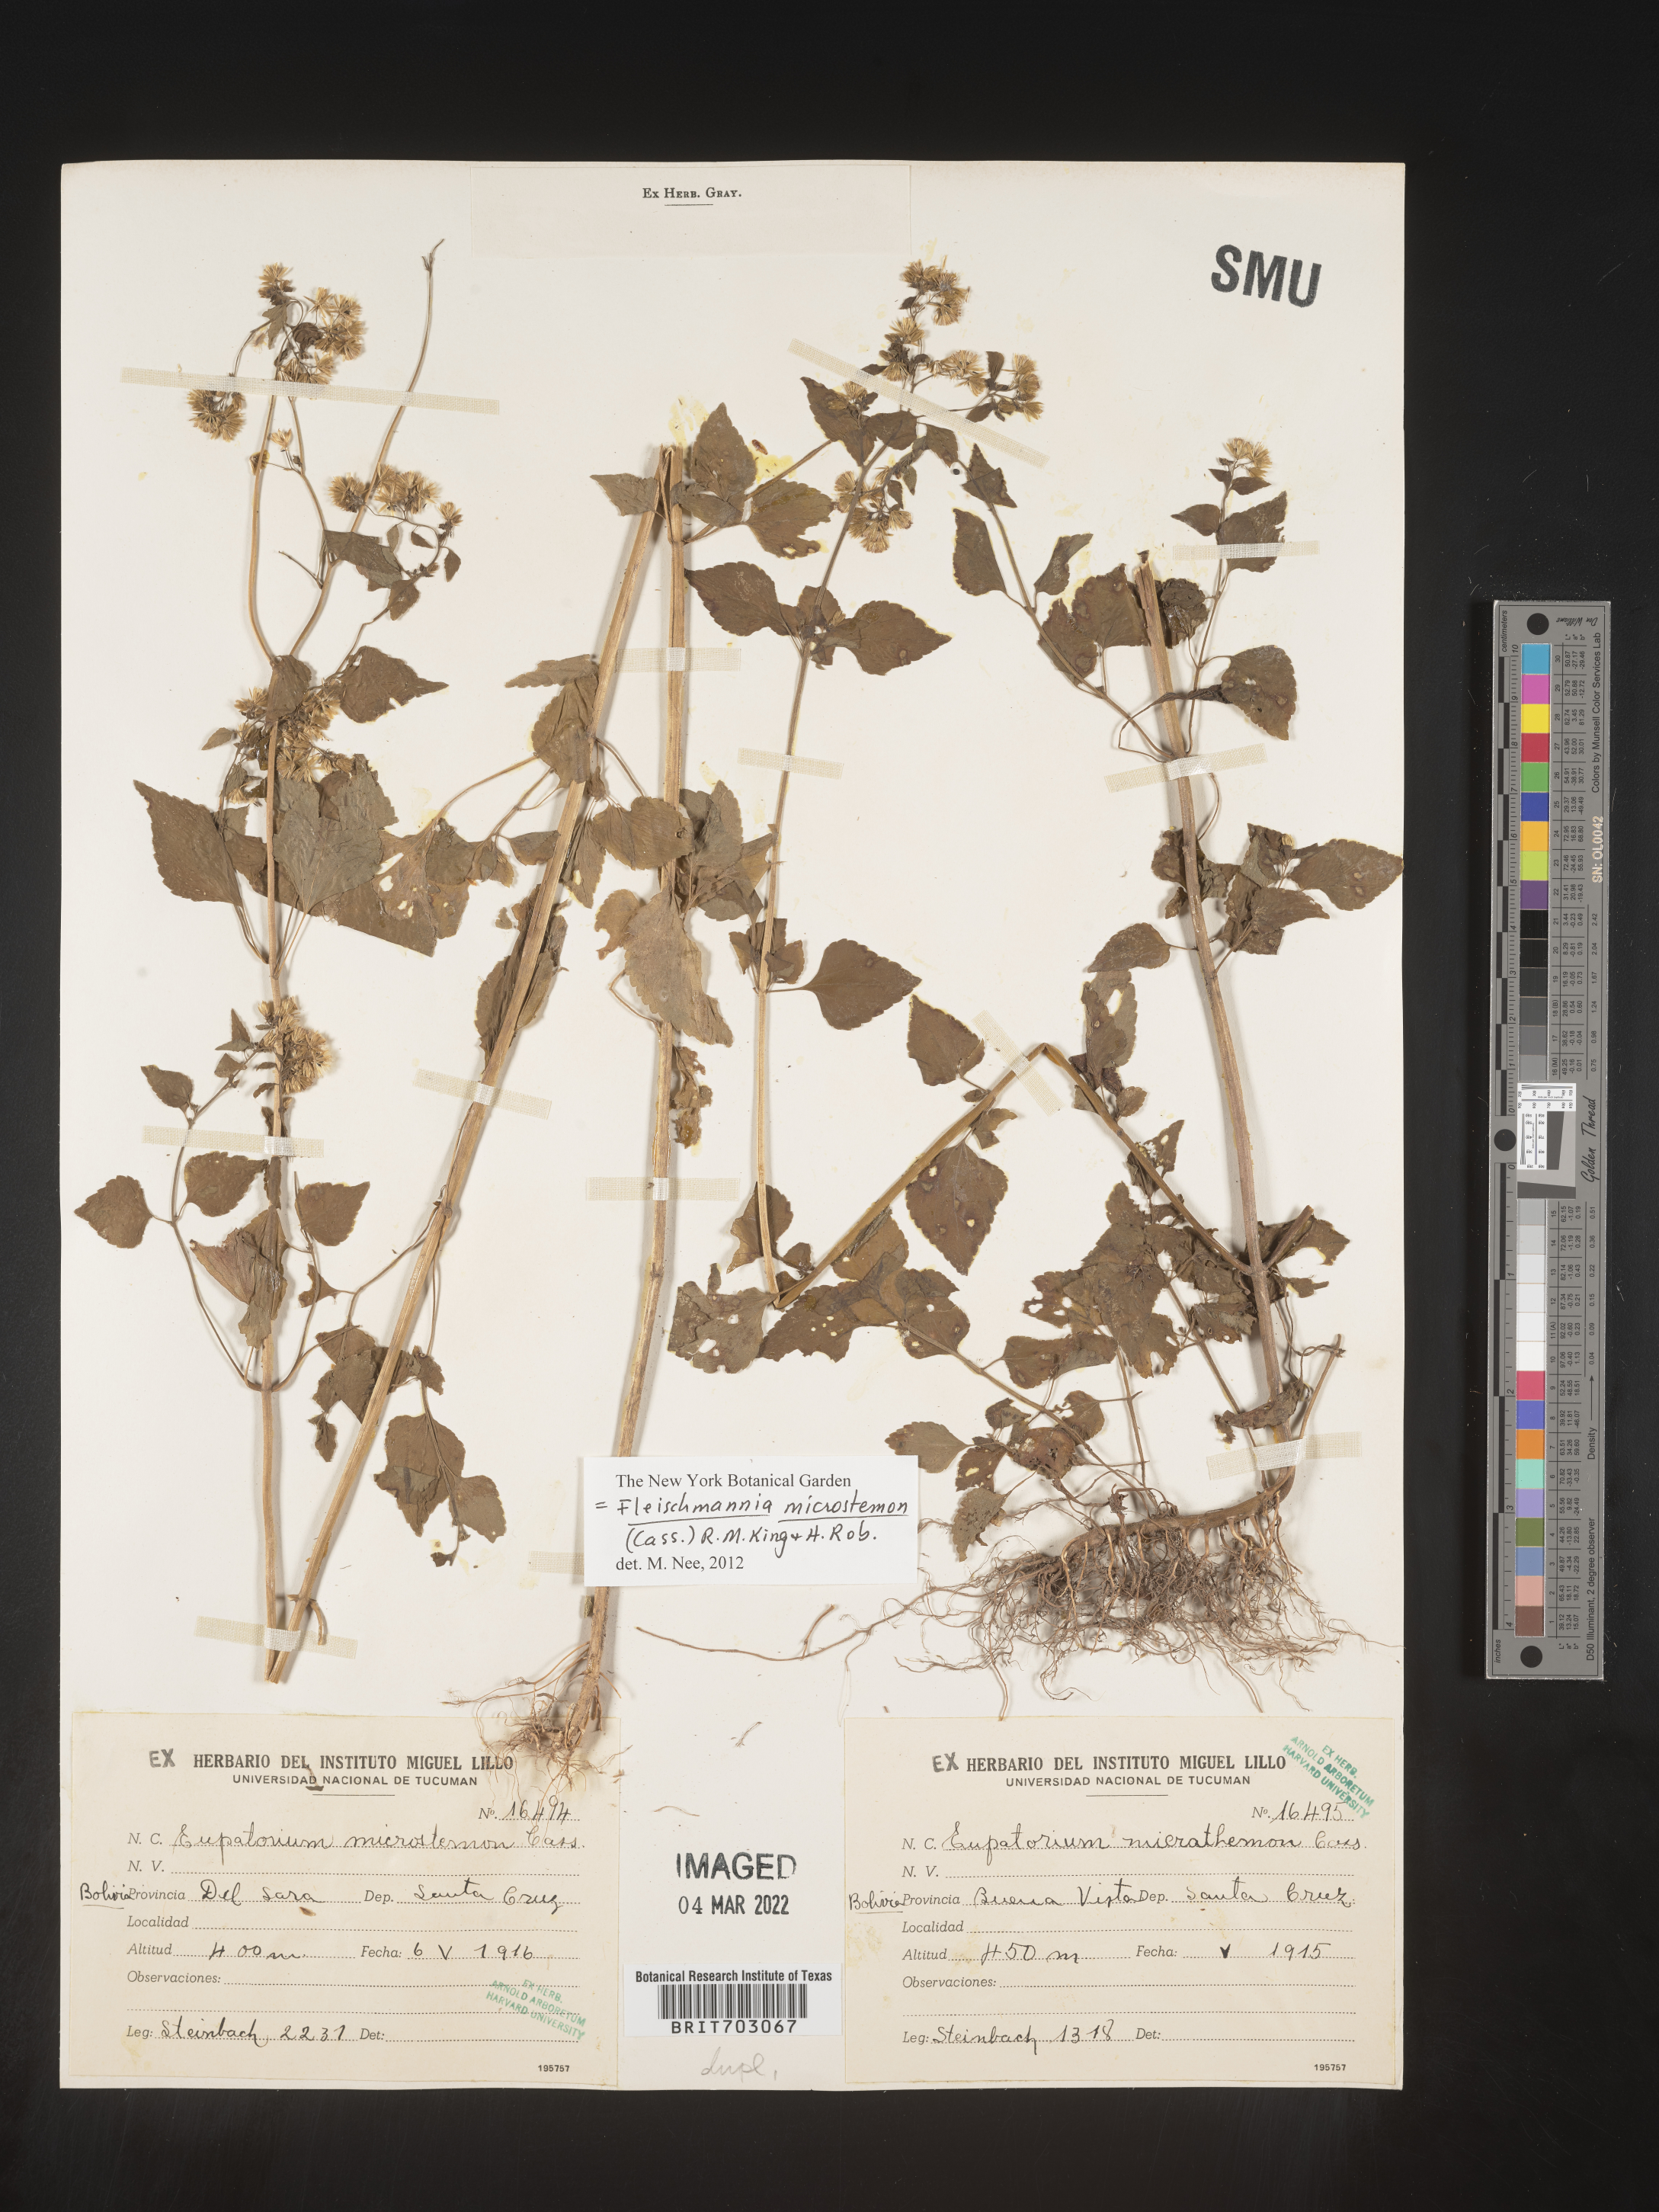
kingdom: Plantae
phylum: Tracheophyta
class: Magnoliopsida
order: Asterales
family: Asteraceae
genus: Eupatorium
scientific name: Eupatorium
